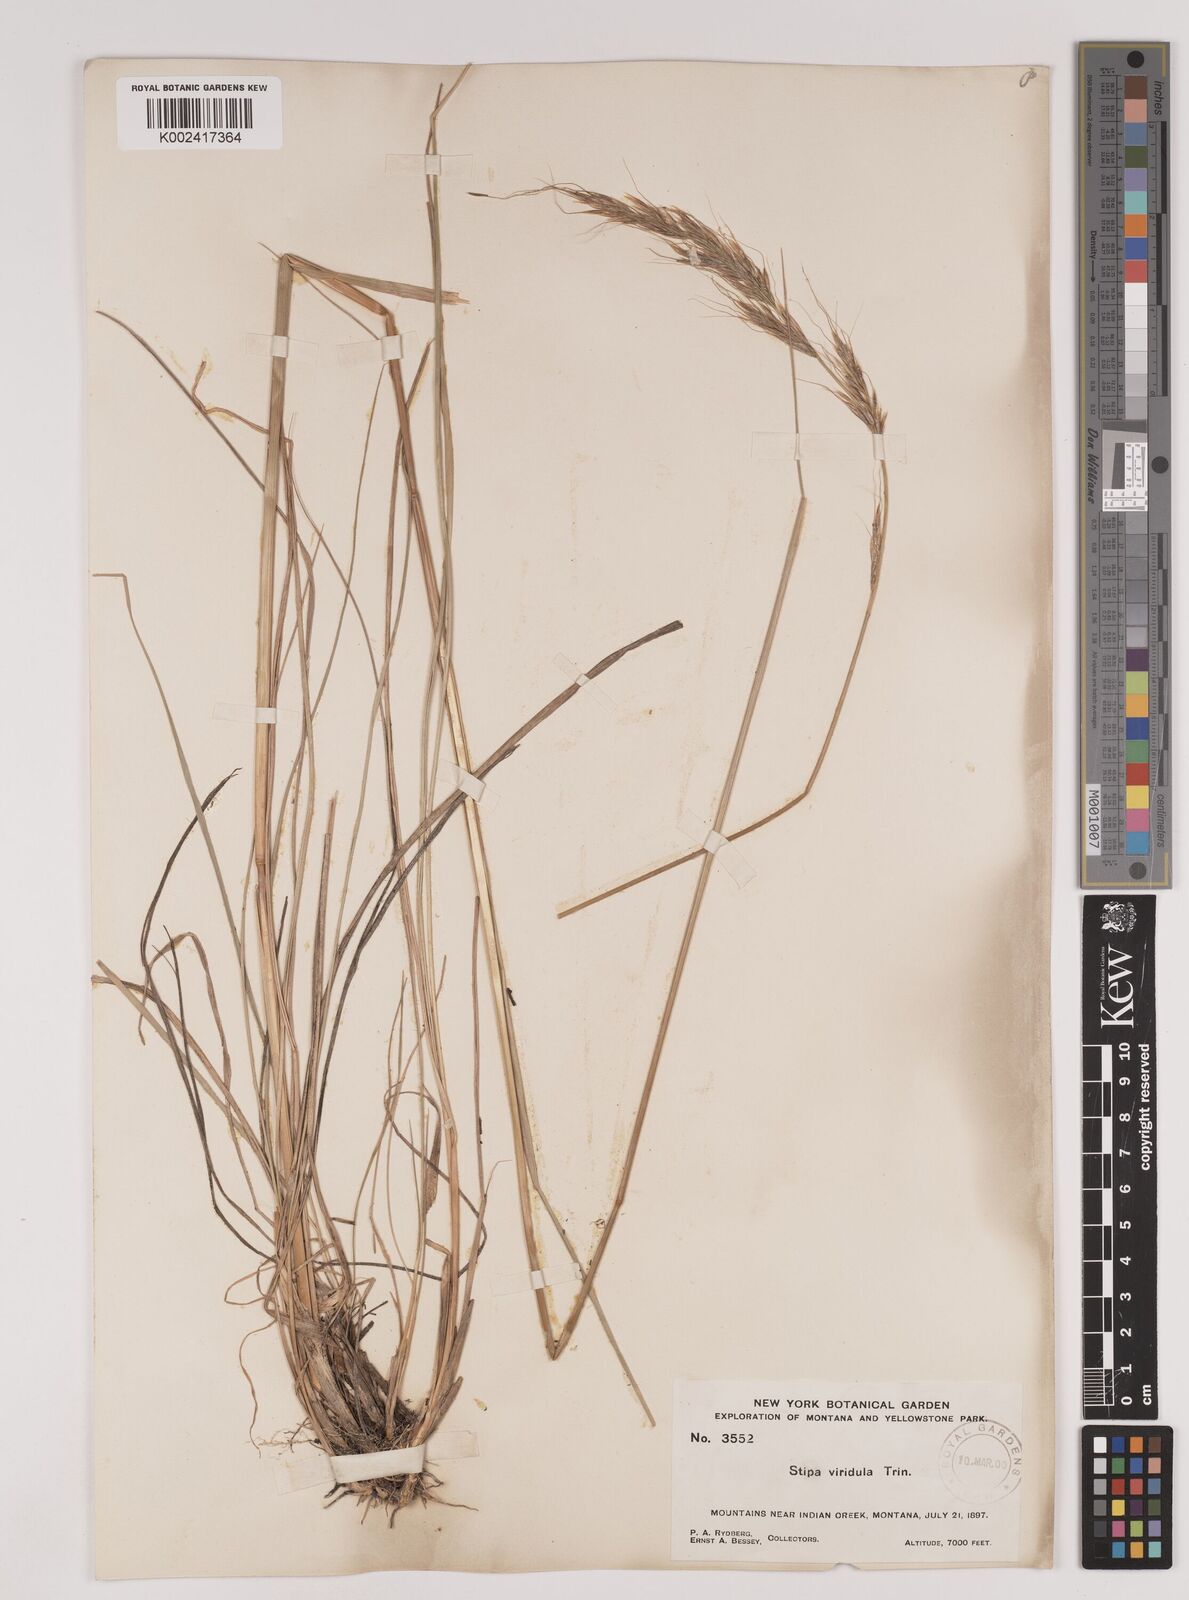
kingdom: Plantae
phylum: Tracheophyta
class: Liliopsida
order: Poales
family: Poaceae
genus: Nassella
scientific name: Nassella viridula
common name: Green needlegrass
